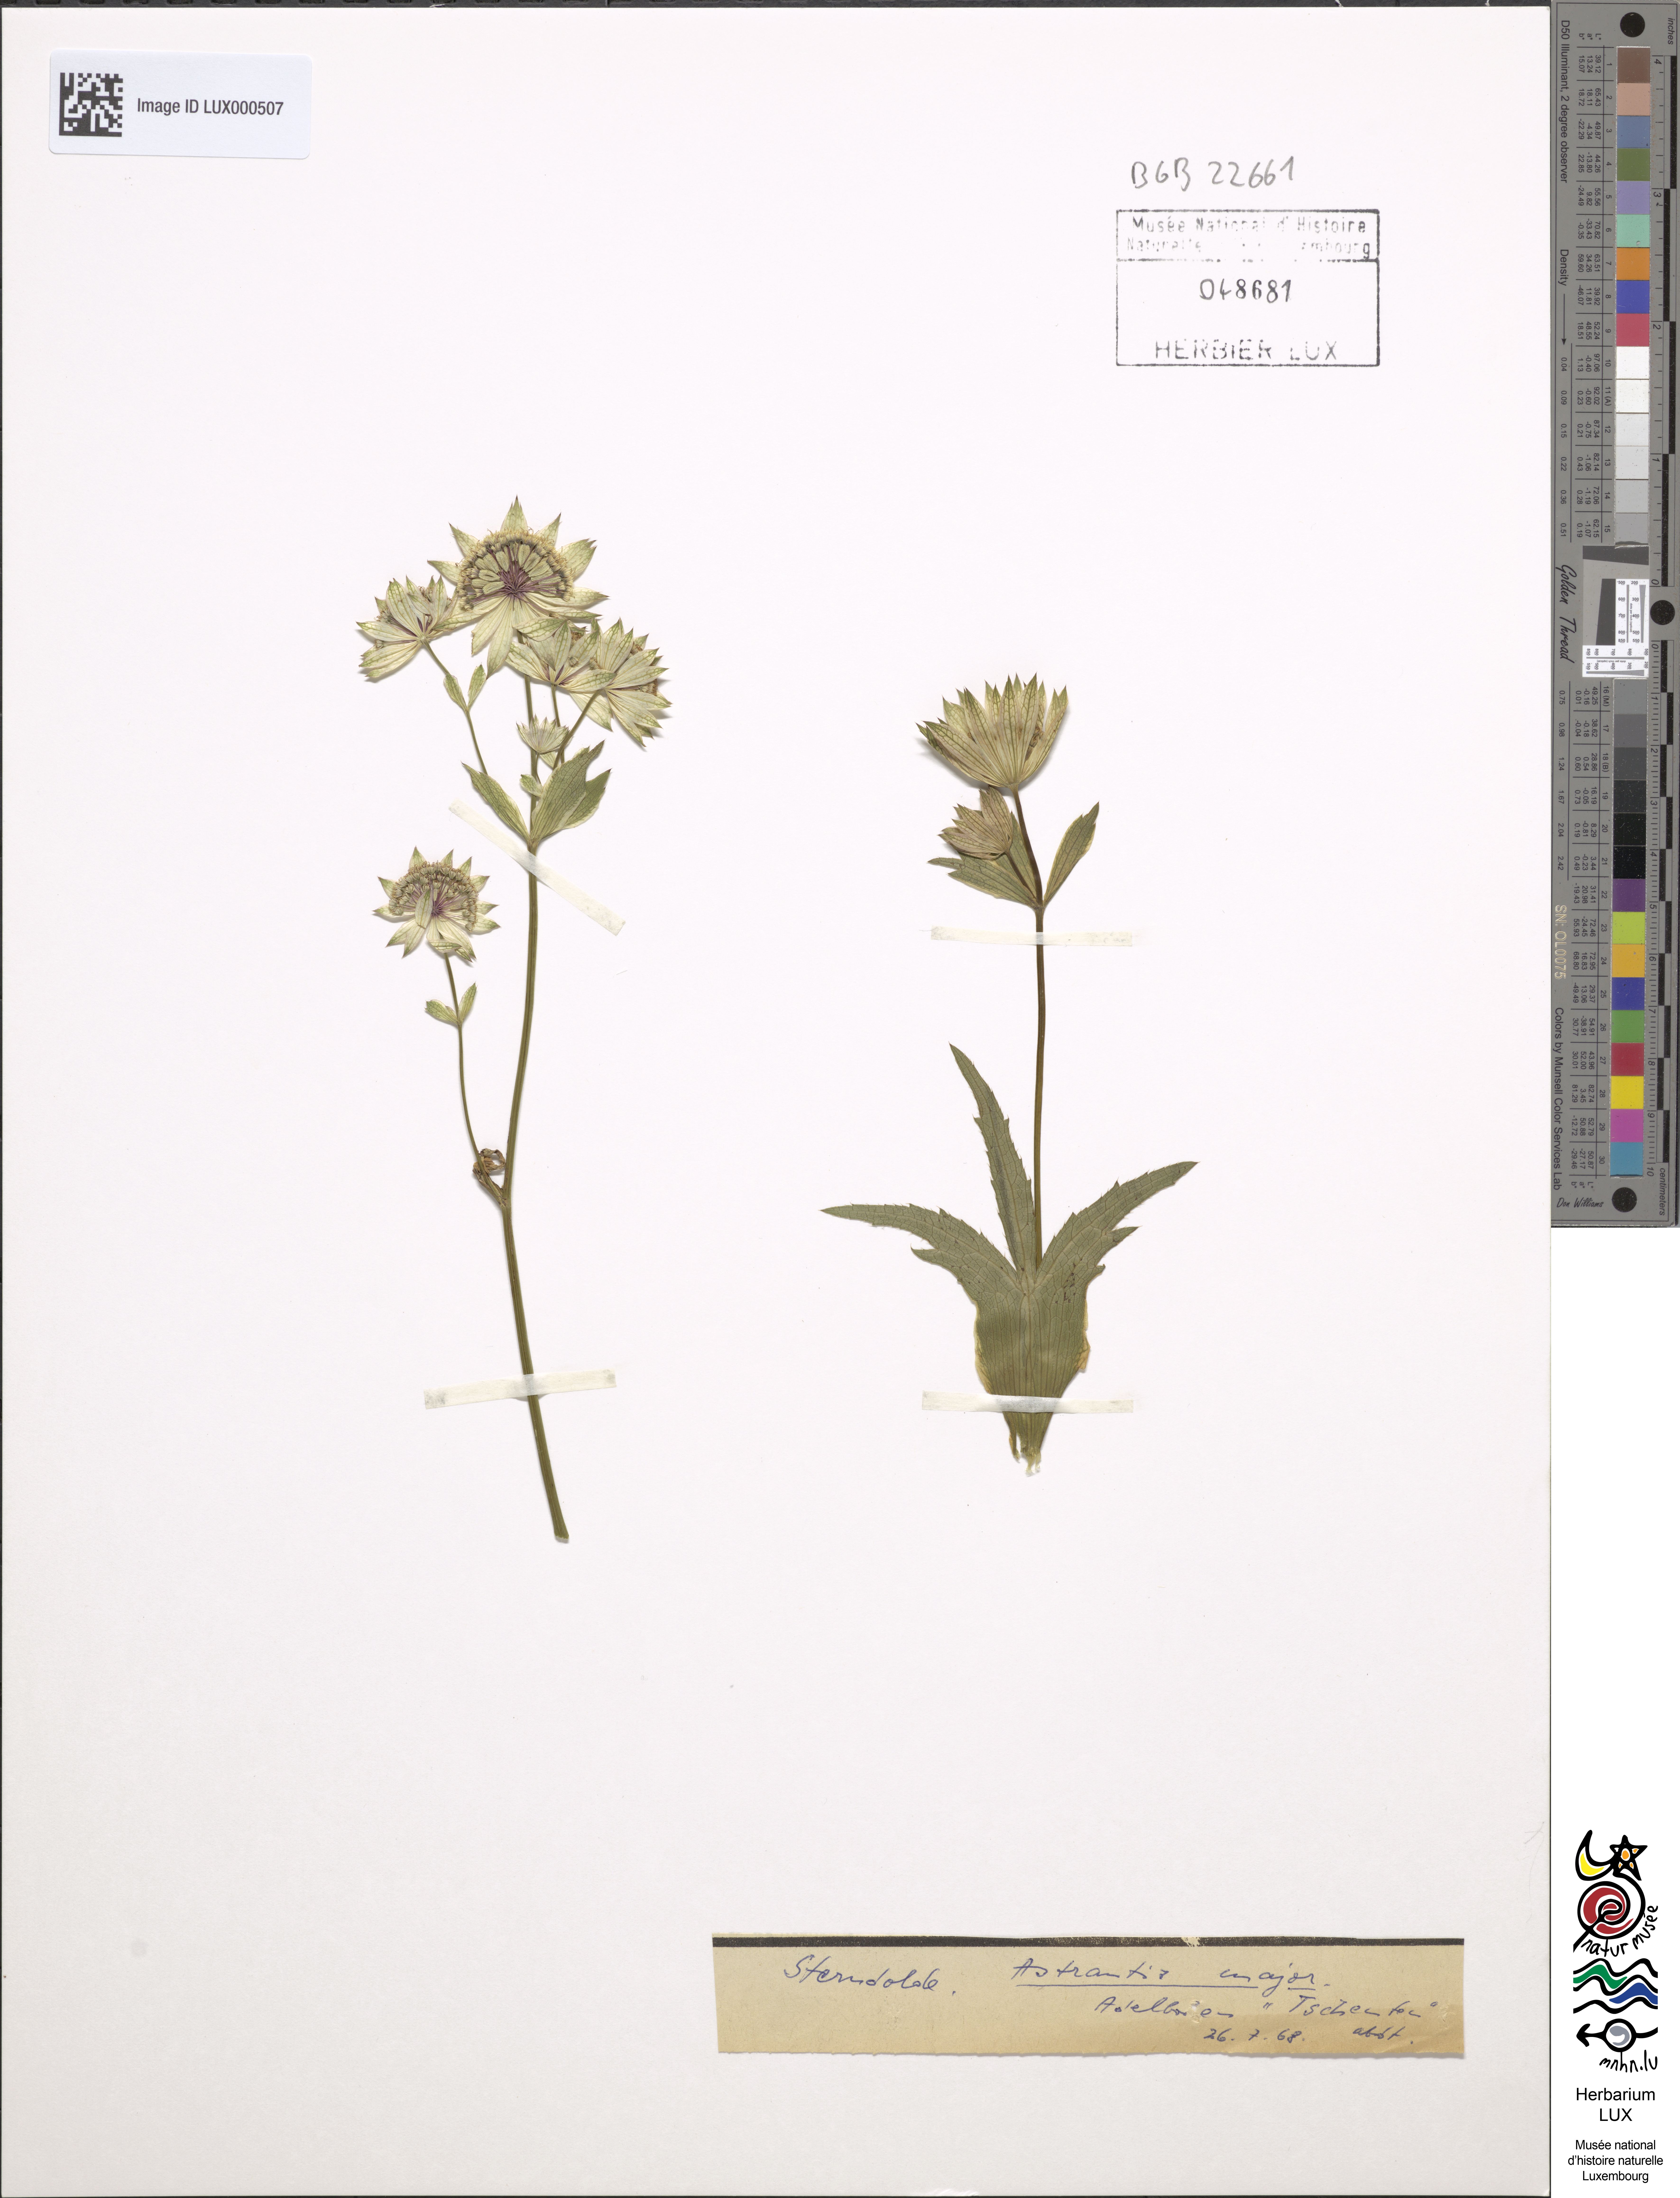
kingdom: Plantae
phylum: Tracheophyta
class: Magnoliopsida
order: Apiales
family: Apiaceae
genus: Astrantia
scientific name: Astrantia major
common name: Greater masterwort
